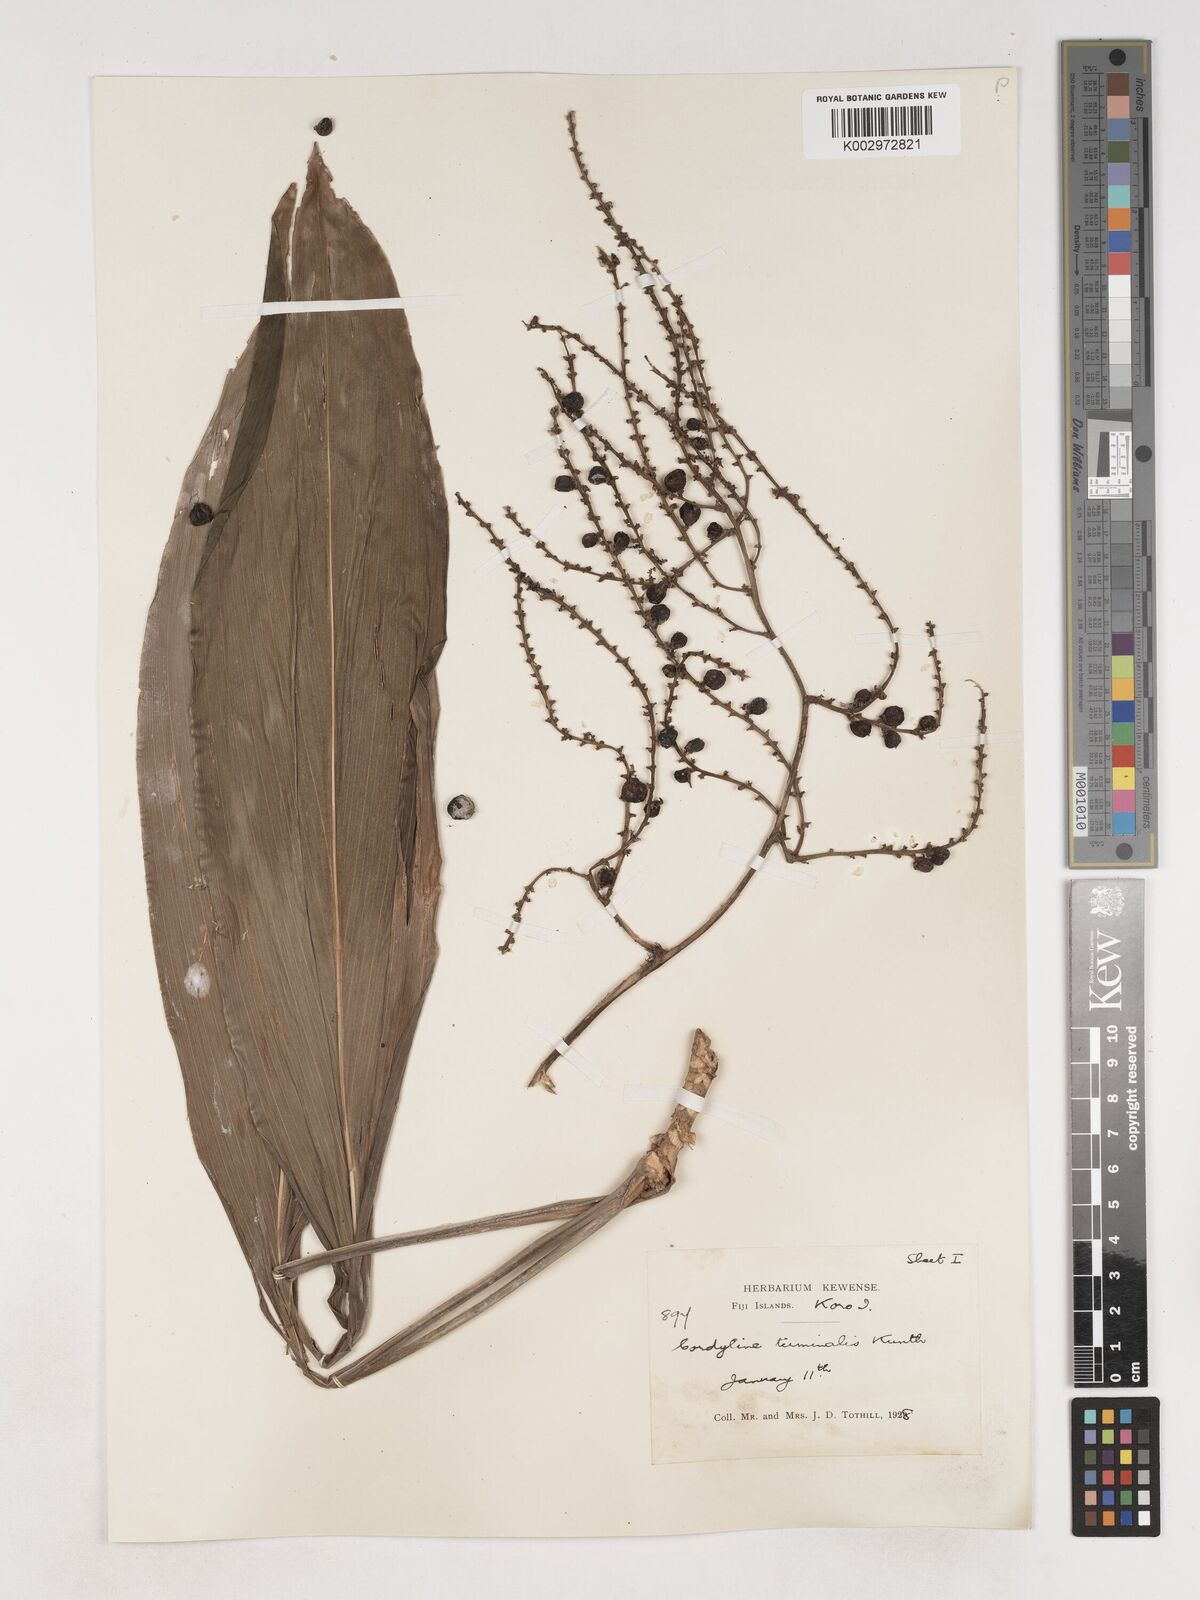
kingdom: Plantae
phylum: Tracheophyta
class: Liliopsida
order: Asparagales
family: Asparagaceae
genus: Cordyline
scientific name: Cordyline fruticosa
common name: Good-luck-plant
